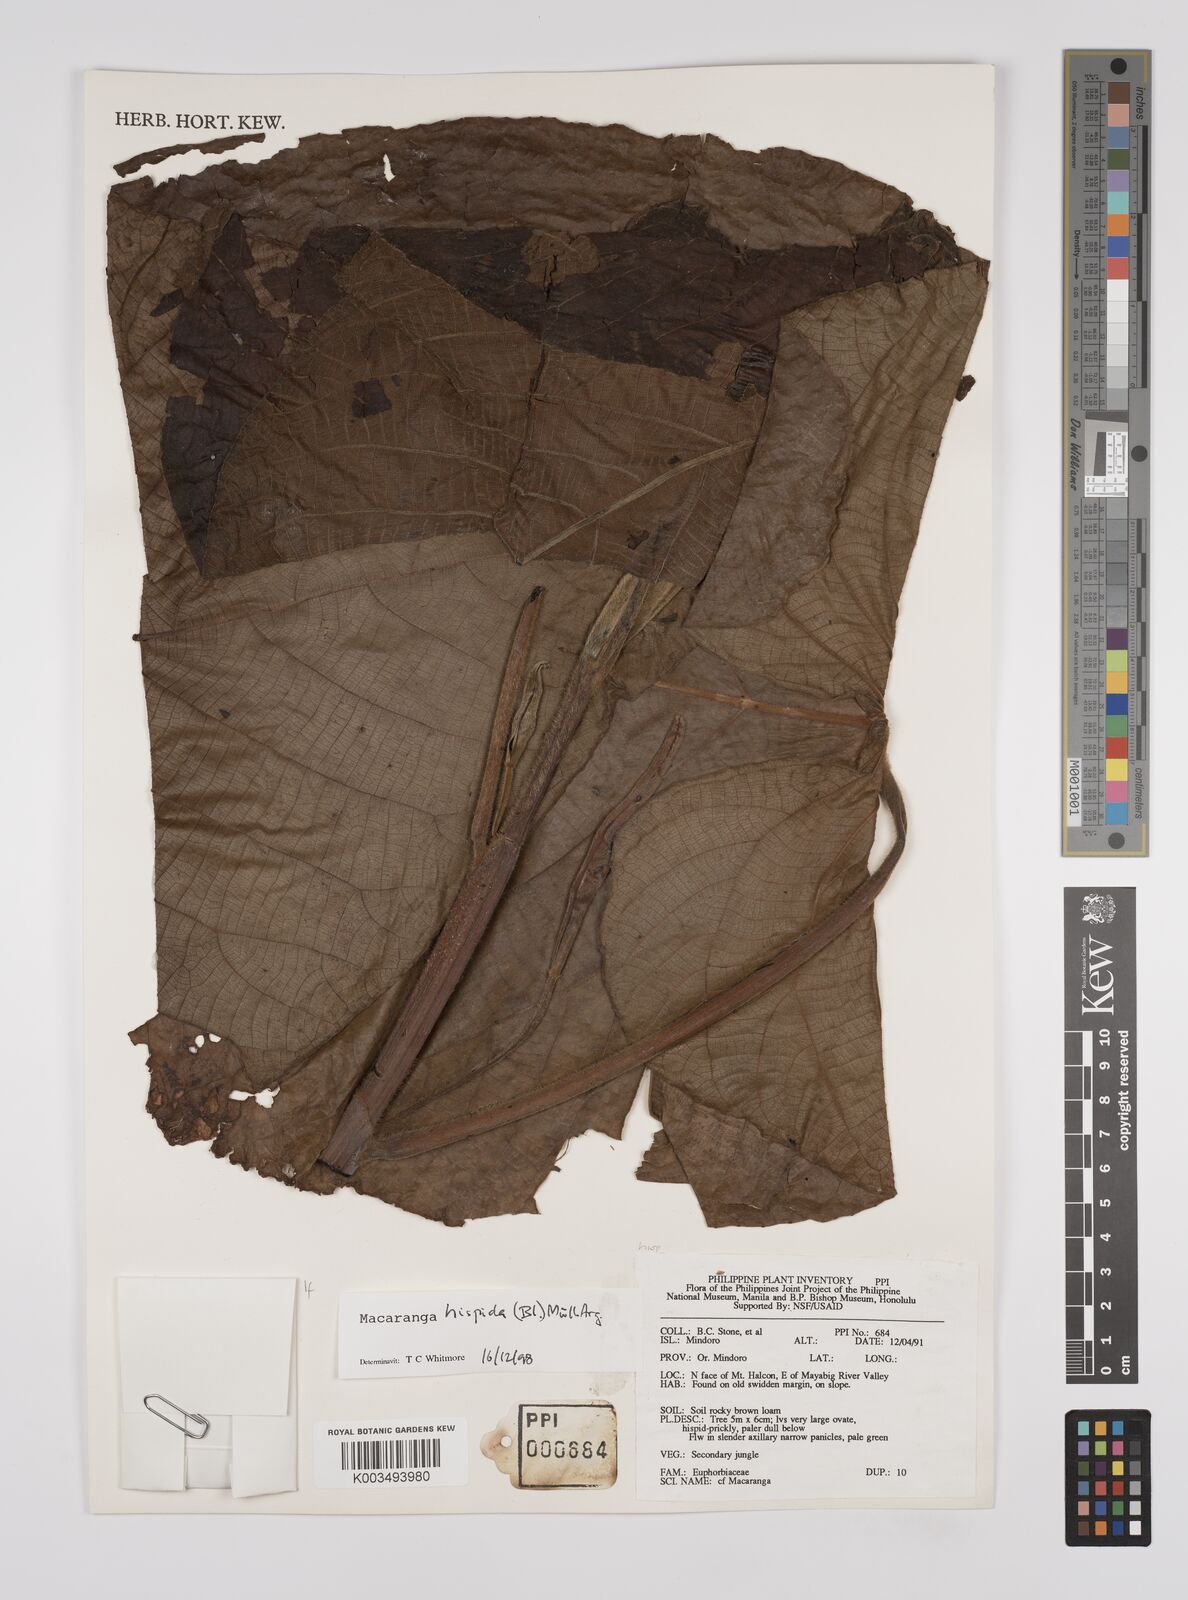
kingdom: Plantae
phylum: Tracheophyta
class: Magnoliopsida
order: Malpighiales
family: Euphorbiaceae
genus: Macaranga
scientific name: Macaranga hispida
